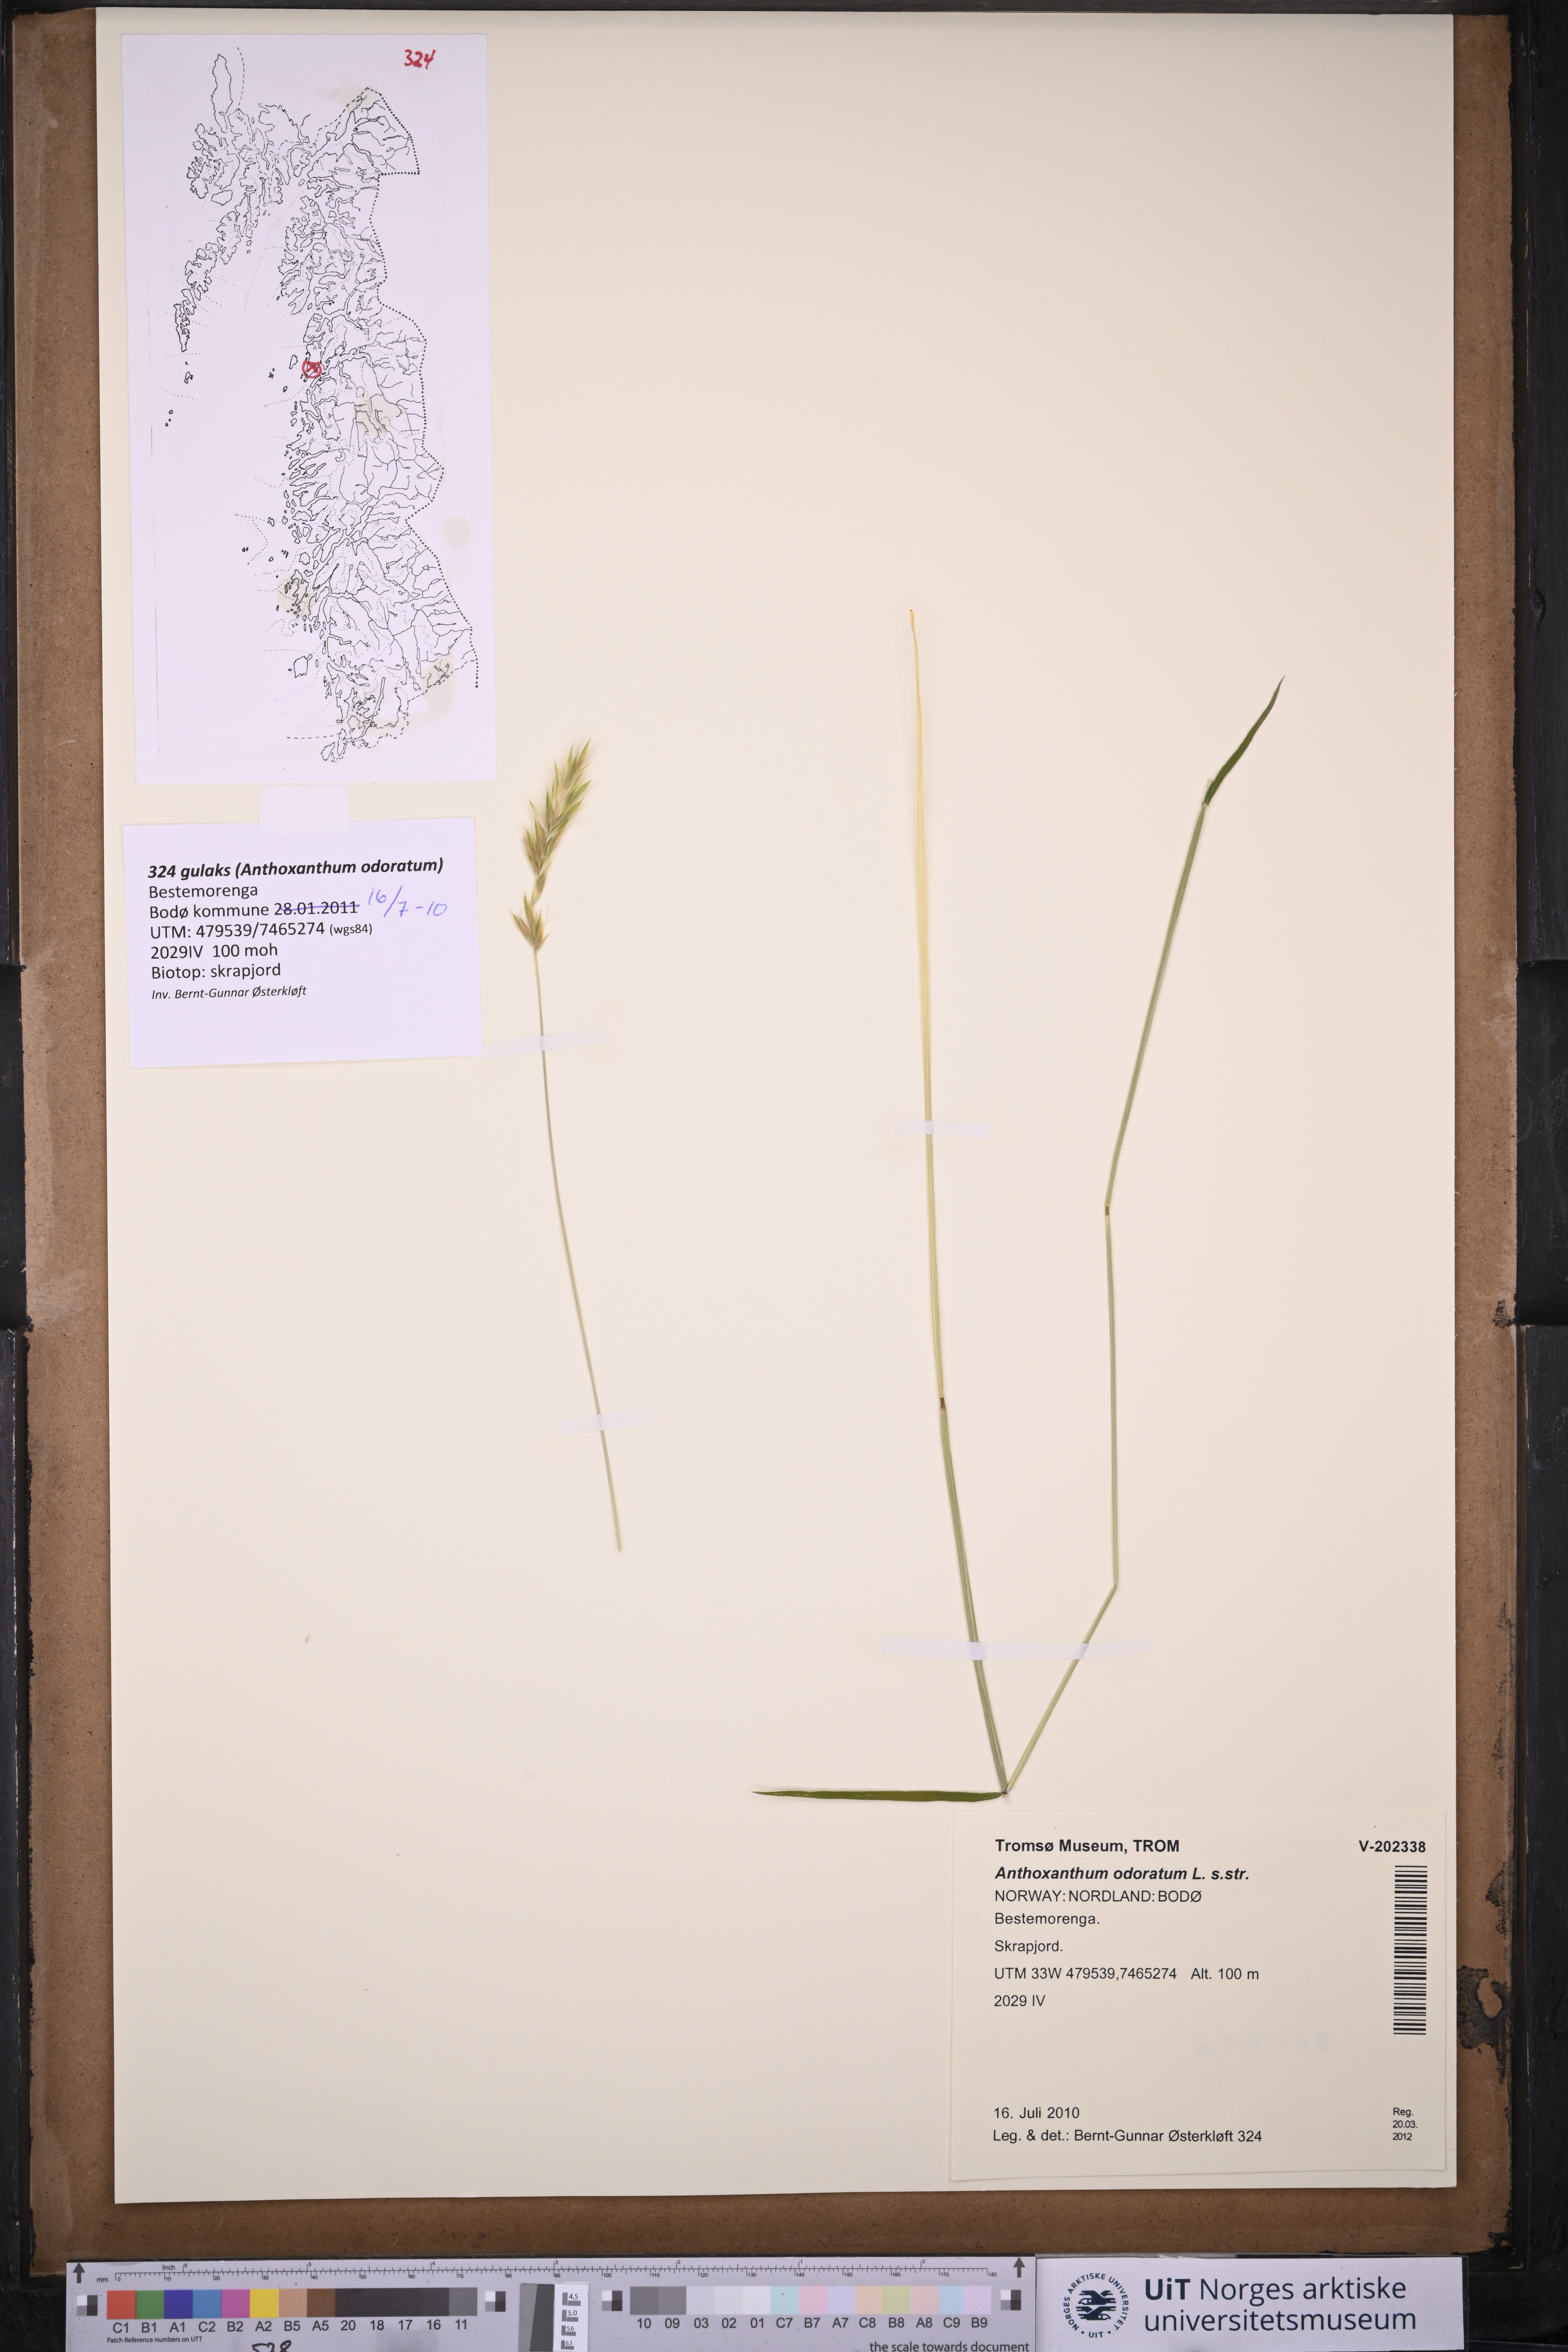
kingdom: Plantae
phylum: Tracheophyta
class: Liliopsida
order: Poales
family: Poaceae
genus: Anthoxanthum
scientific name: Anthoxanthum odoratum
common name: Sweet vernalgrass
